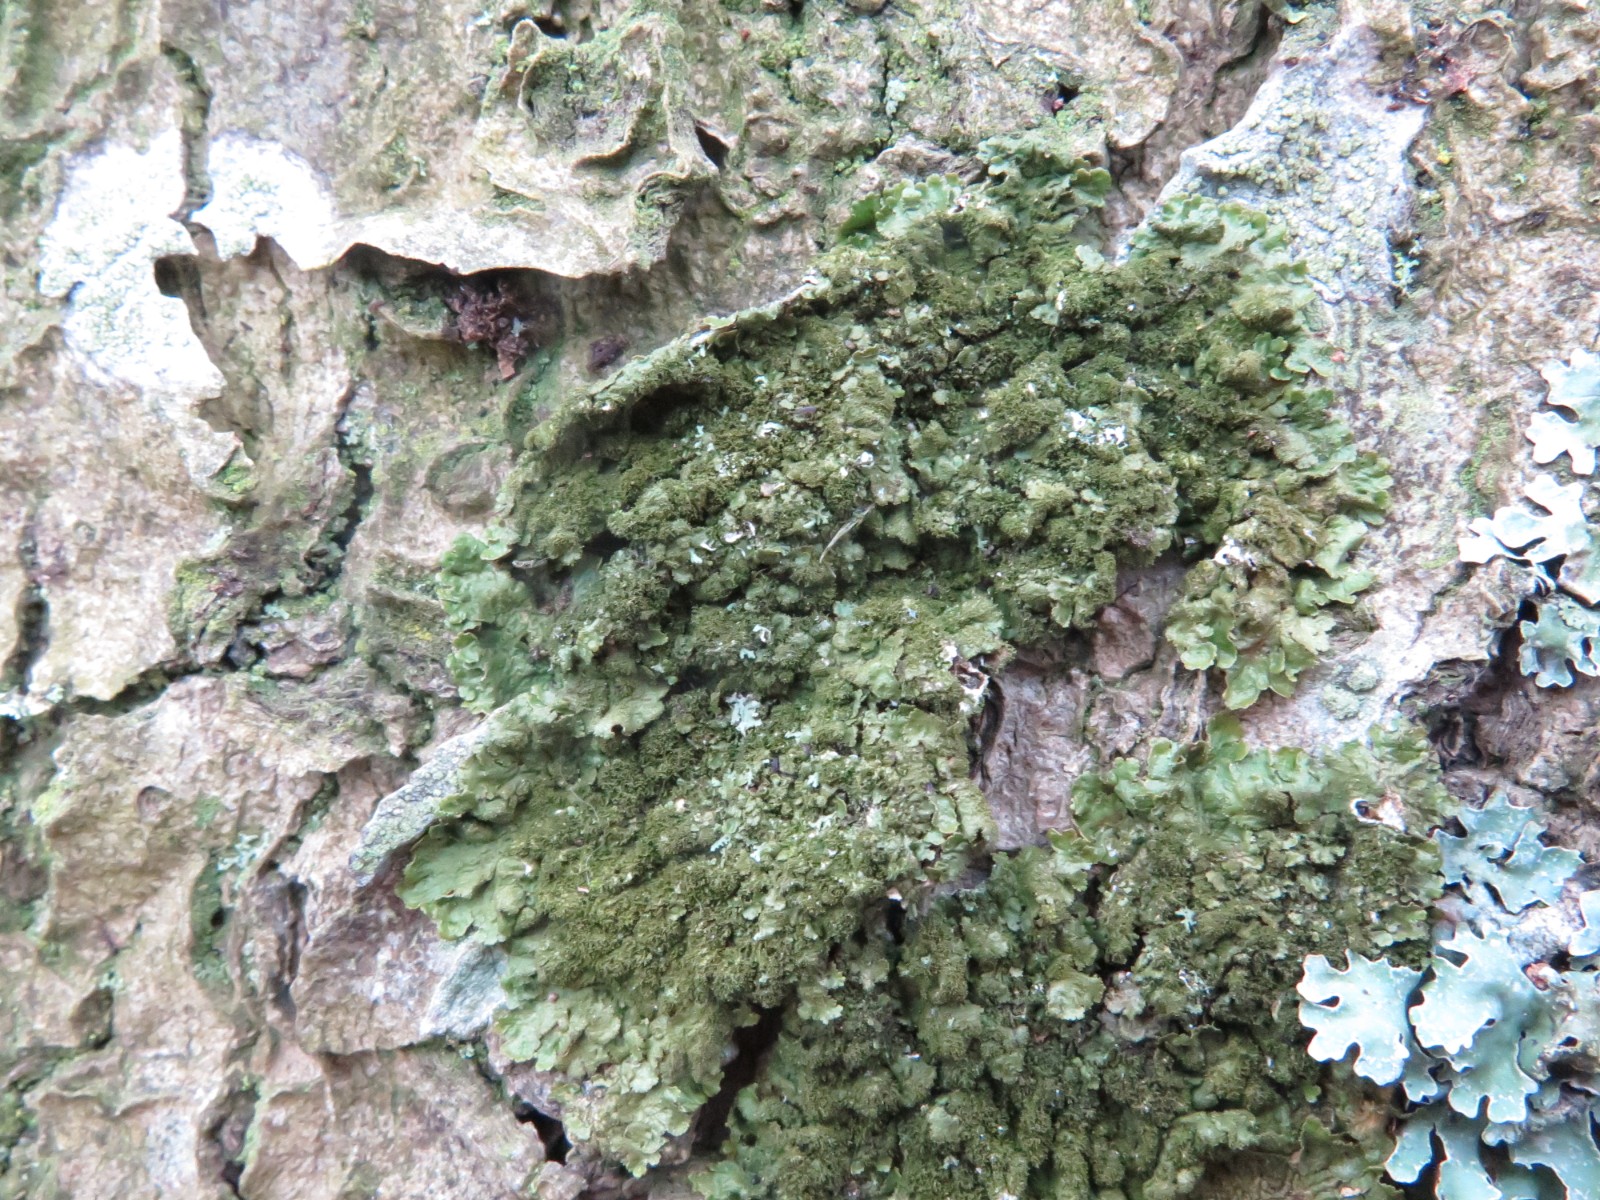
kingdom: Fungi
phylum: Ascomycota
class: Lecanoromycetes
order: Lecanorales
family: Parmeliaceae
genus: Melanelixia
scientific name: Melanelixia subaurifera
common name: guldpudret skållav
